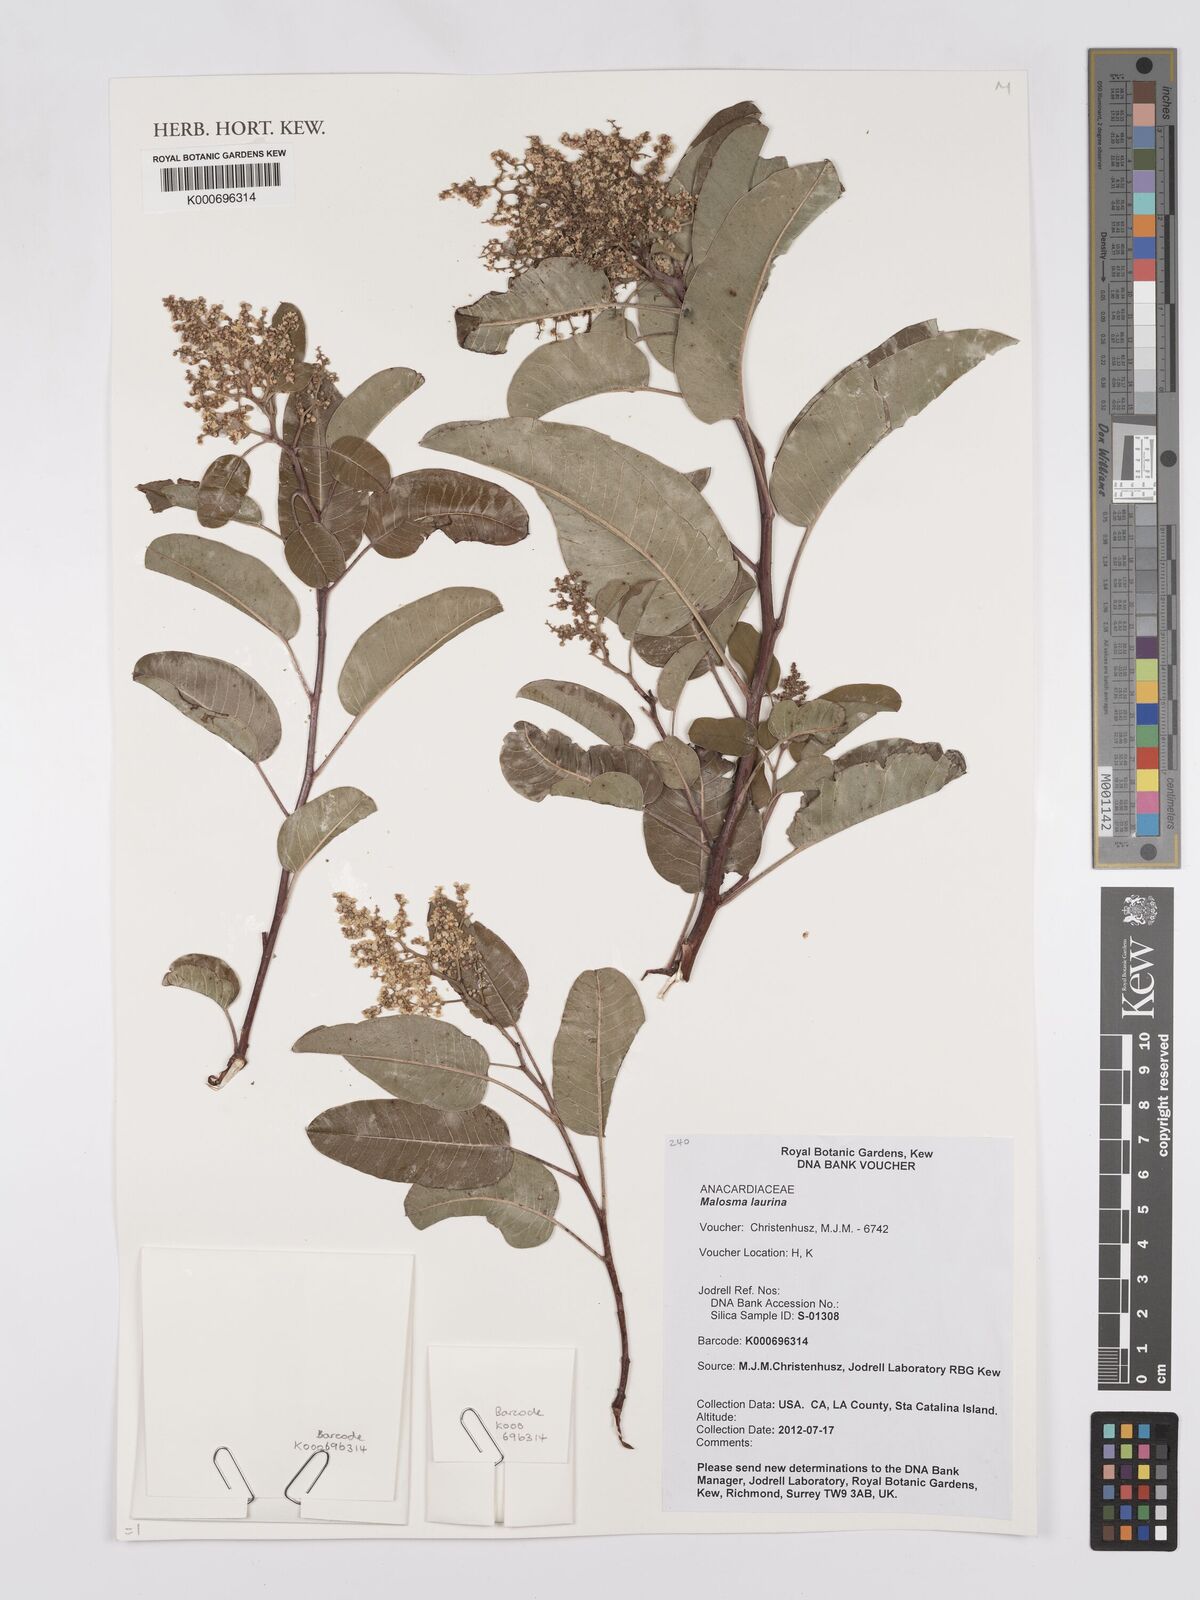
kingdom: Plantae
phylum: Tracheophyta
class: Magnoliopsida
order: Sapindales
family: Anacardiaceae
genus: Malosma
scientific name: Malosma laurina
